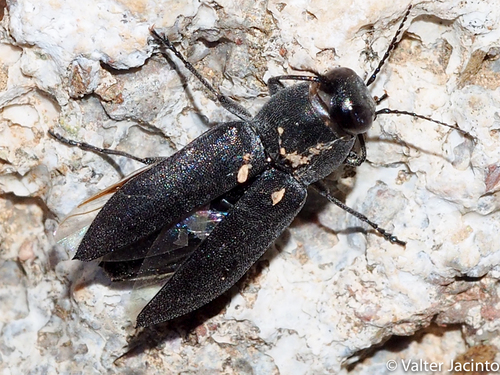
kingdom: Animalia
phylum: Arthropoda
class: Insecta
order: Coleoptera
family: Buprestidae
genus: Melanophila
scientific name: Melanophila cuspidata
